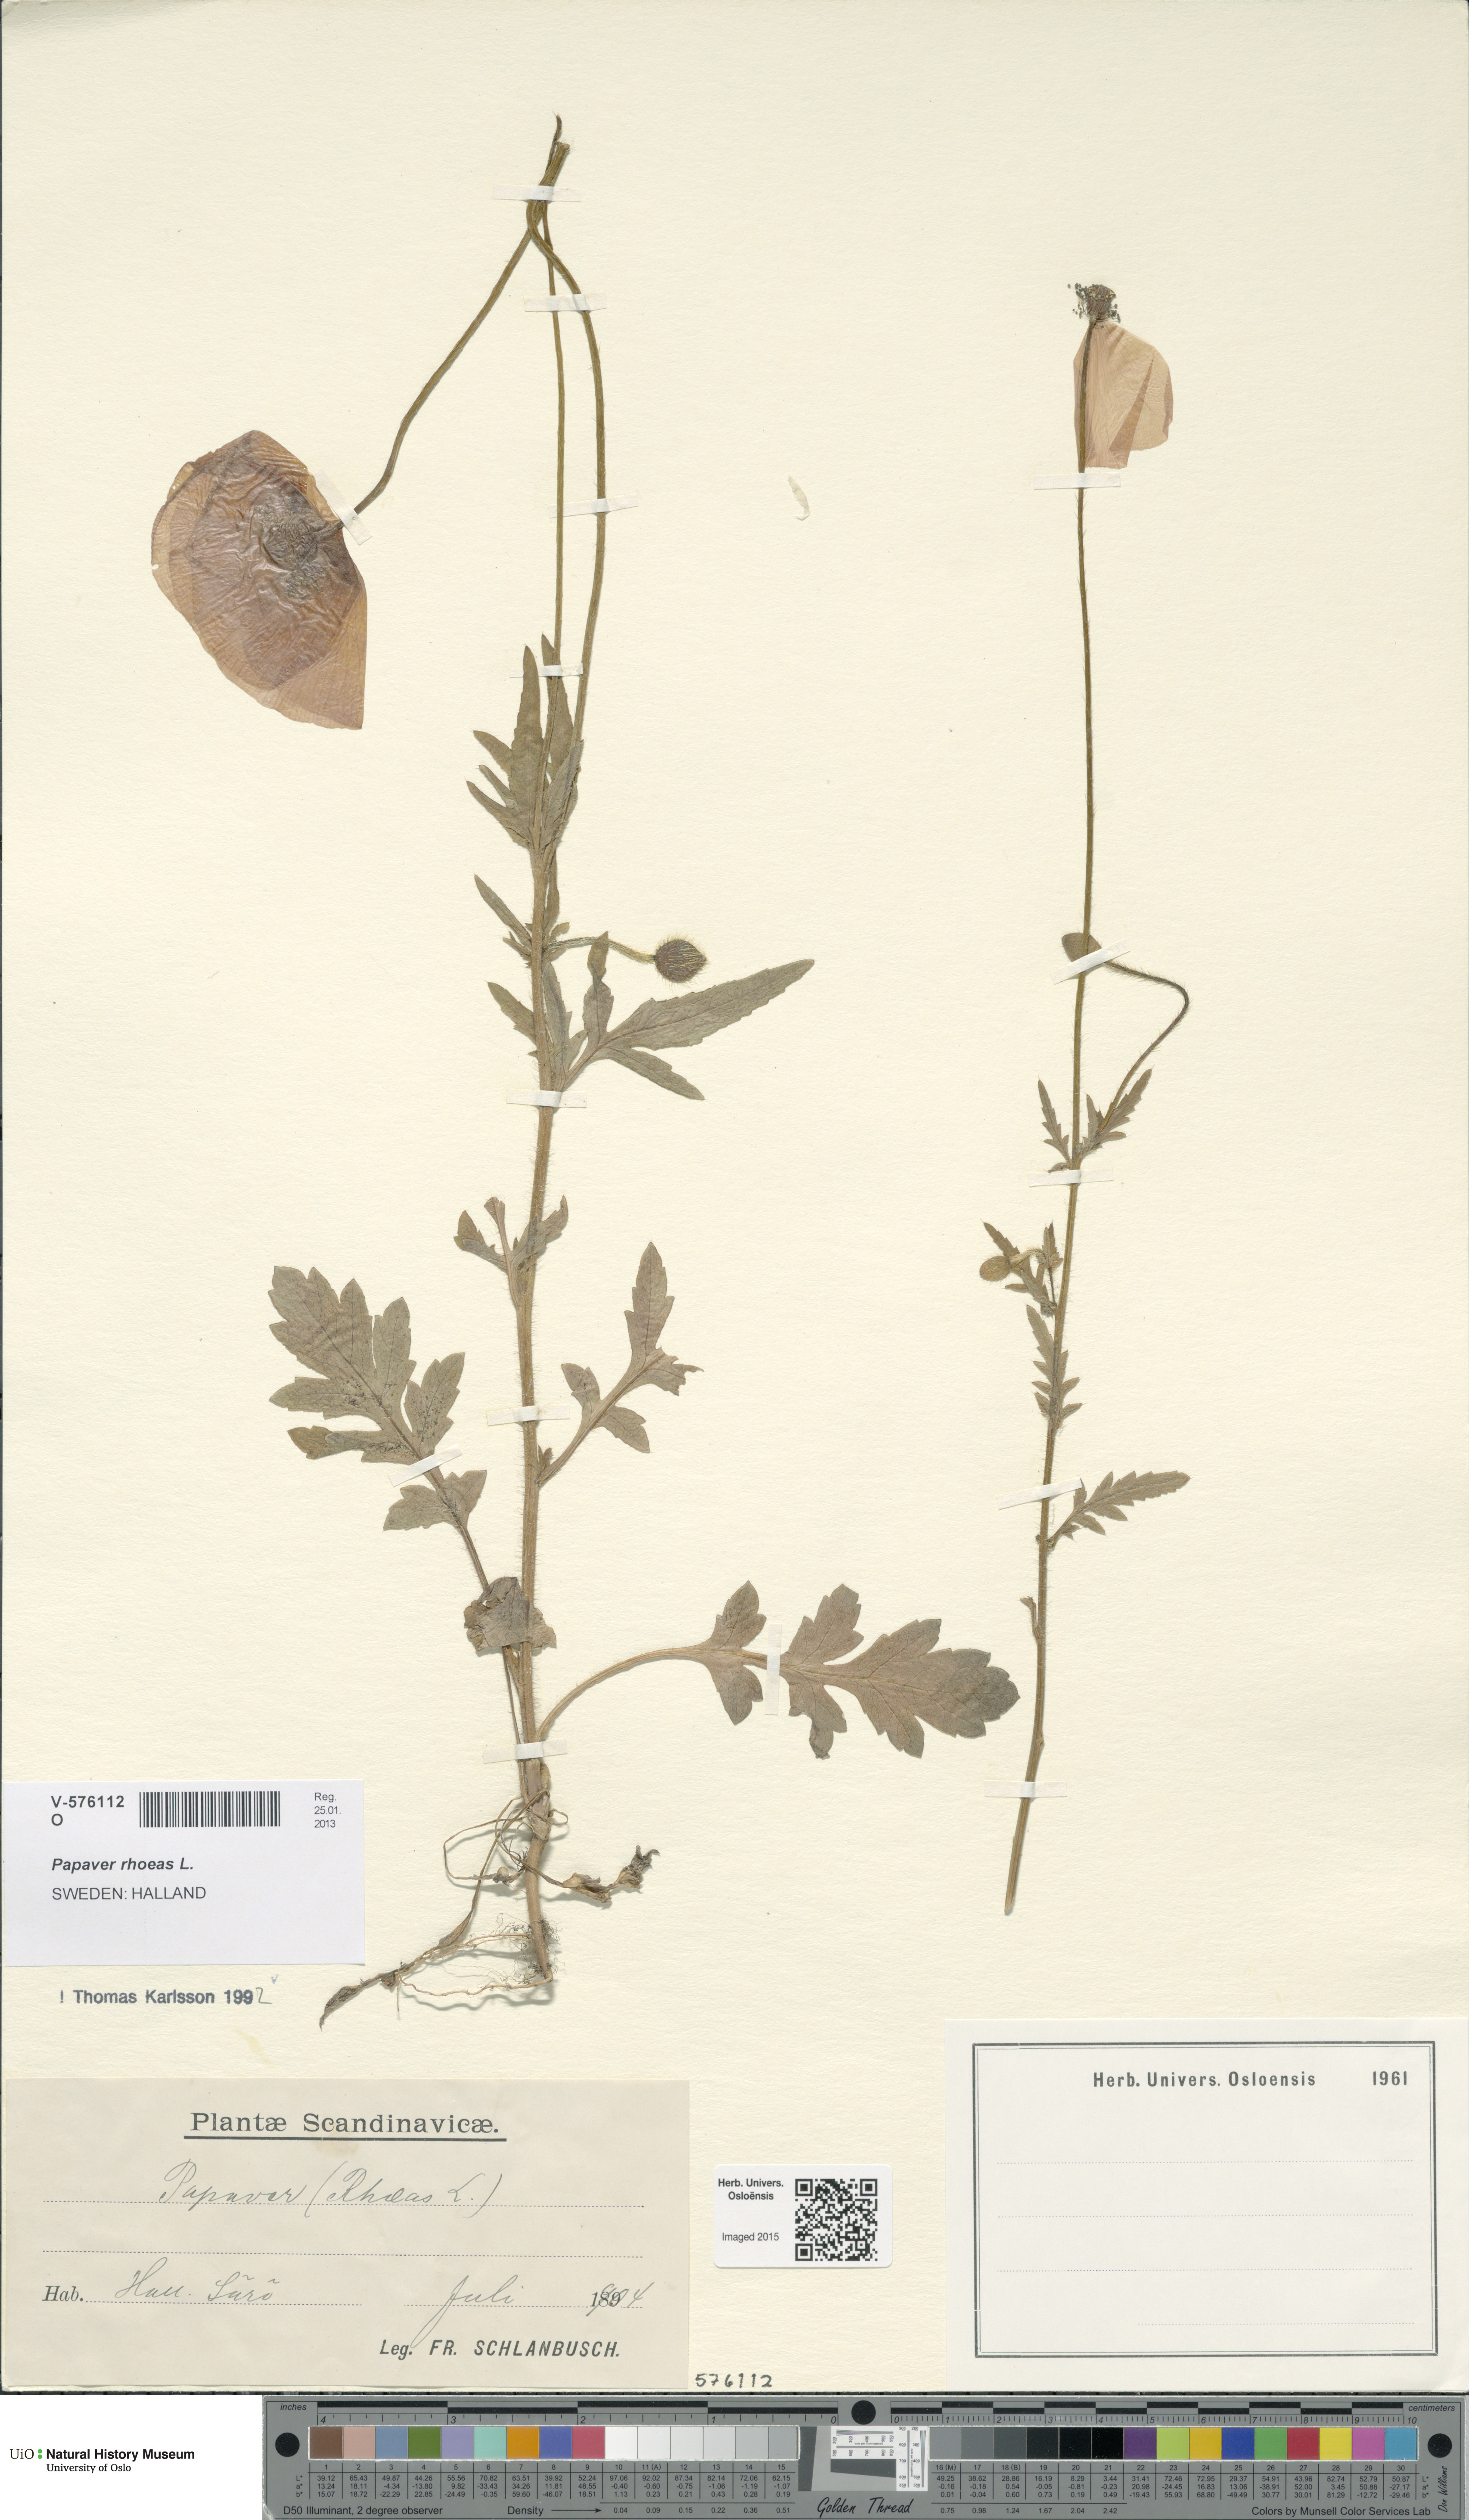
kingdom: Plantae
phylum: Tracheophyta
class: Magnoliopsida
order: Ranunculales
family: Papaveraceae
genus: Papaver
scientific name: Papaver rhoeas
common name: Corn poppy
